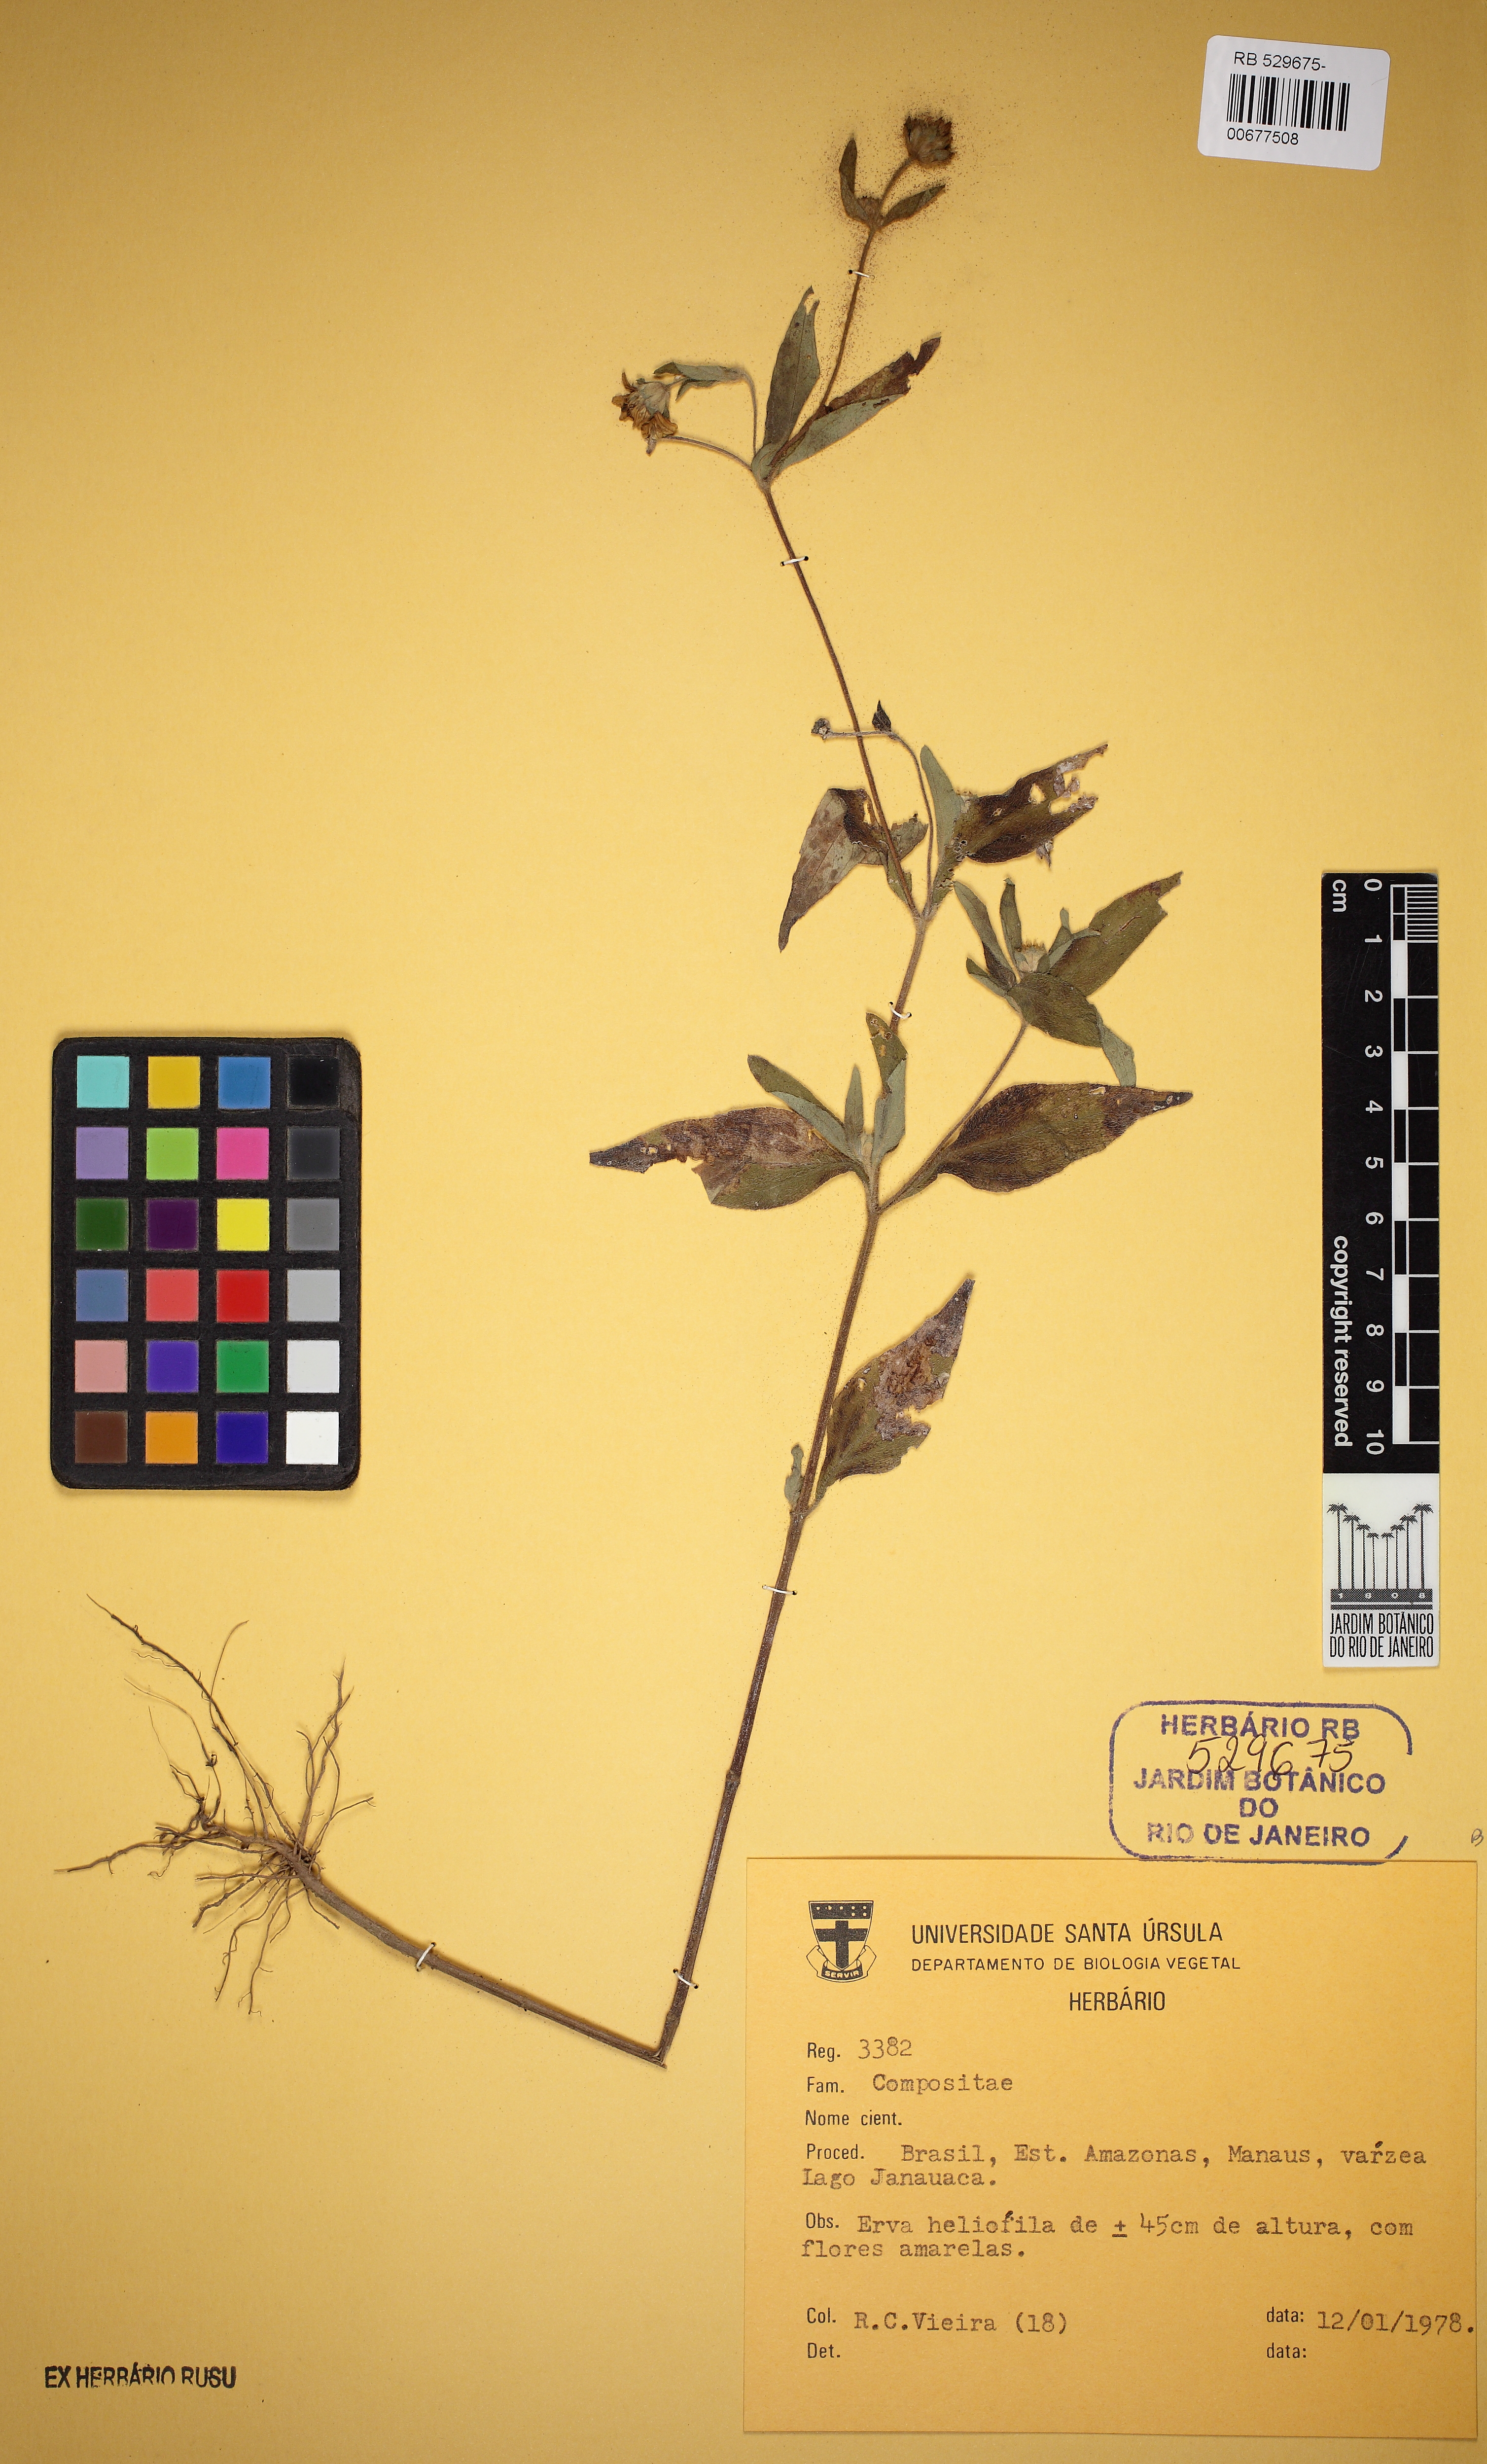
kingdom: Plantae
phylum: Tracheophyta
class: Magnoliopsida
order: Asterales
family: Asteraceae
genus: Wedelia
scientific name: Wedelia rudis
